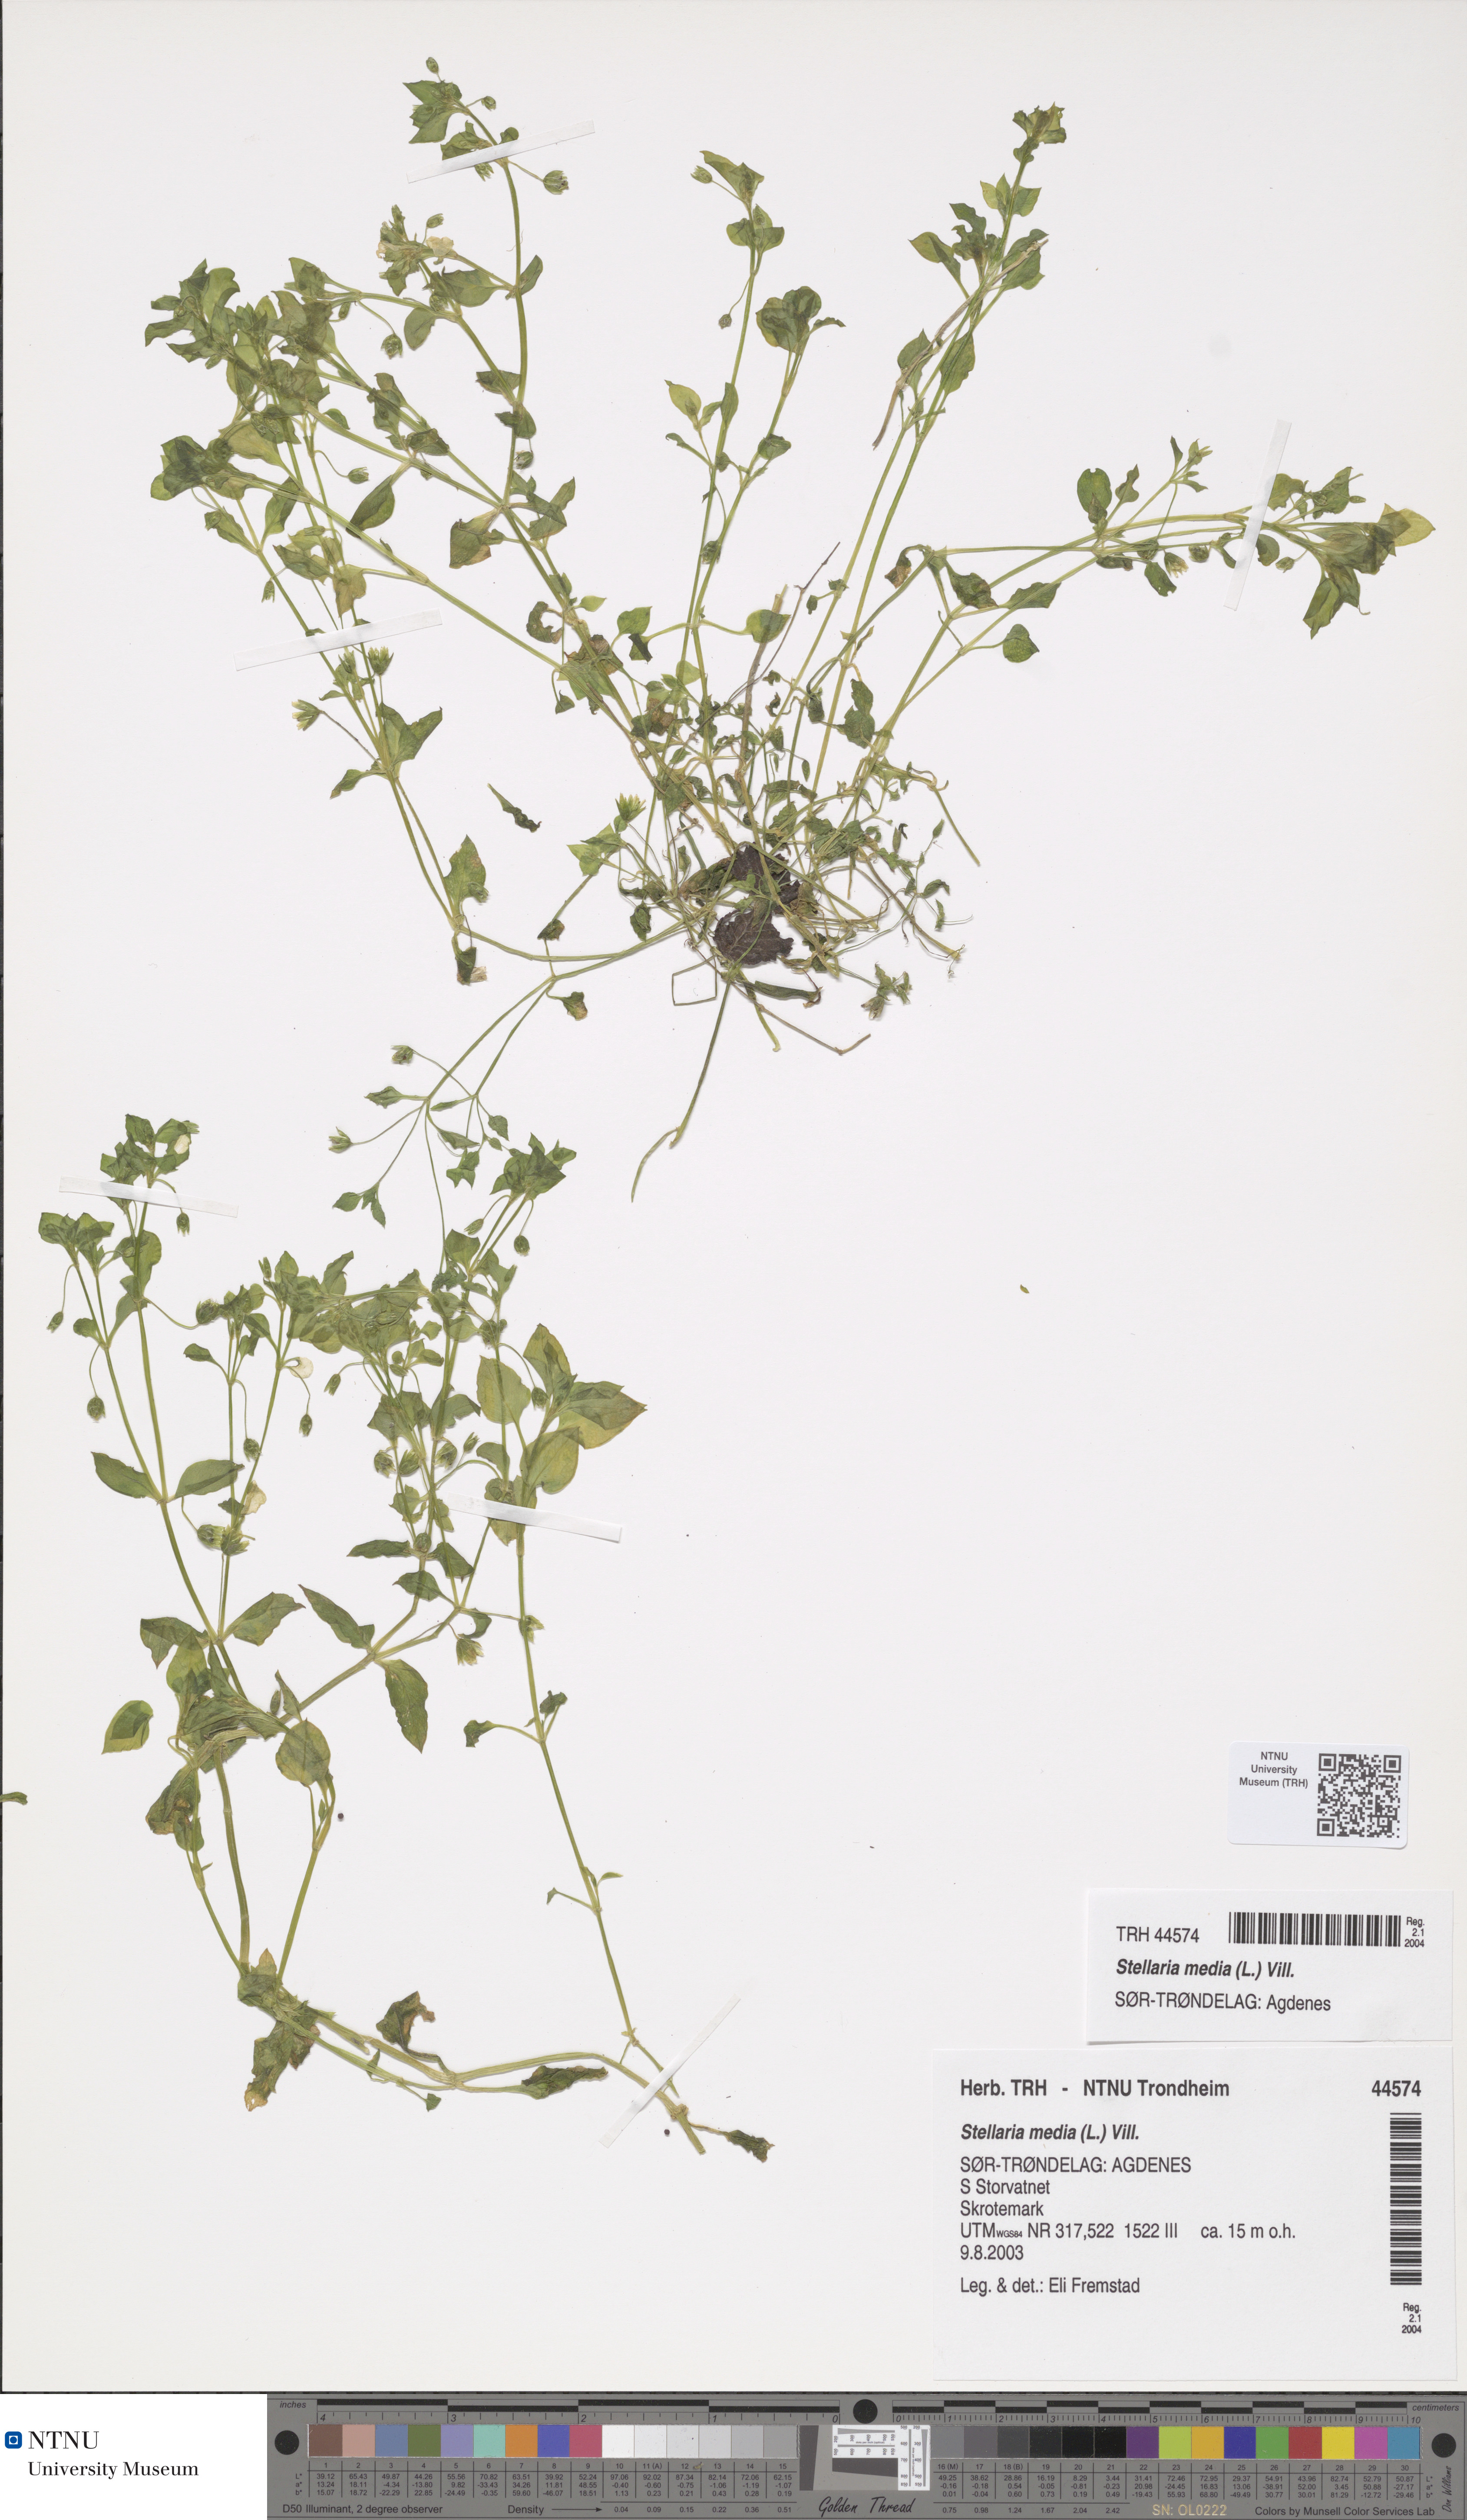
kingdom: Plantae
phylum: Tracheophyta
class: Magnoliopsida
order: Caryophyllales
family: Caryophyllaceae
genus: Stellaria
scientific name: Stellaria media
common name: Common chickweed
